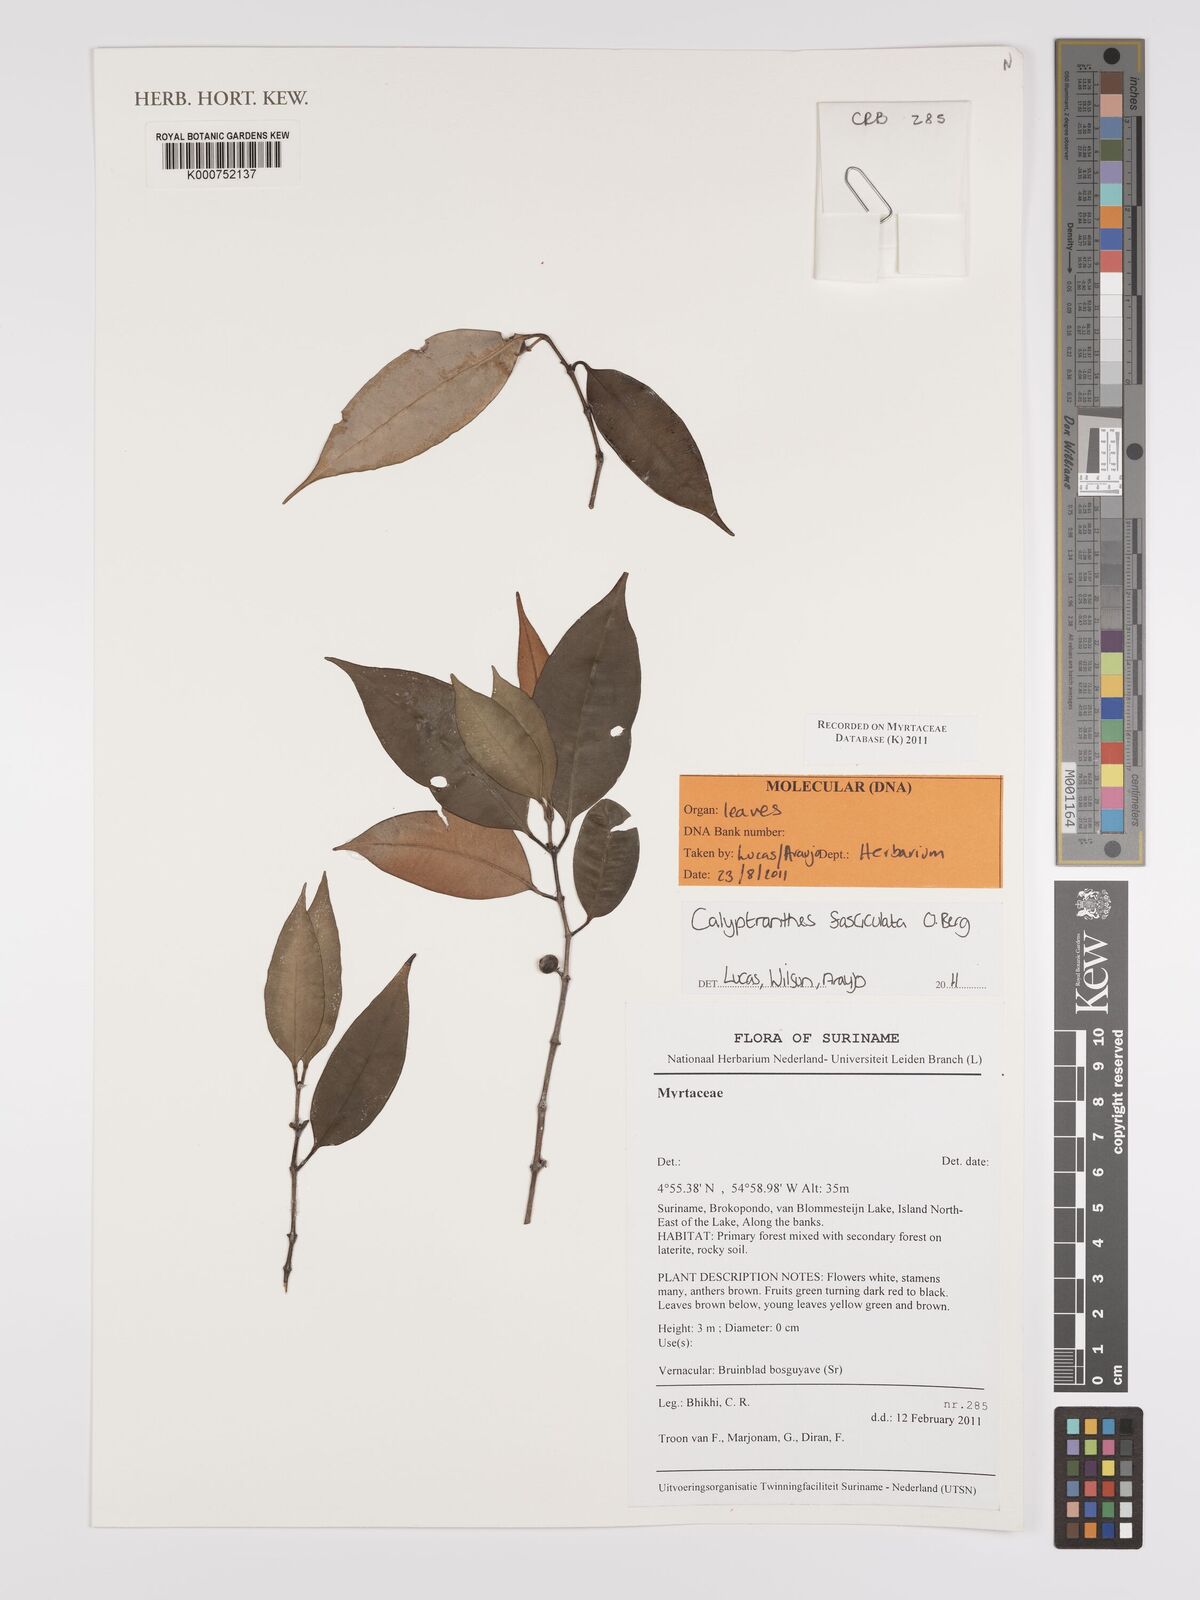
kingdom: Plantae
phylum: Tracheophyta
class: Magnoliopsida
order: Myrtales
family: Myrtaceae
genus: Myrcia
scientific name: Myrcia fasciculata
